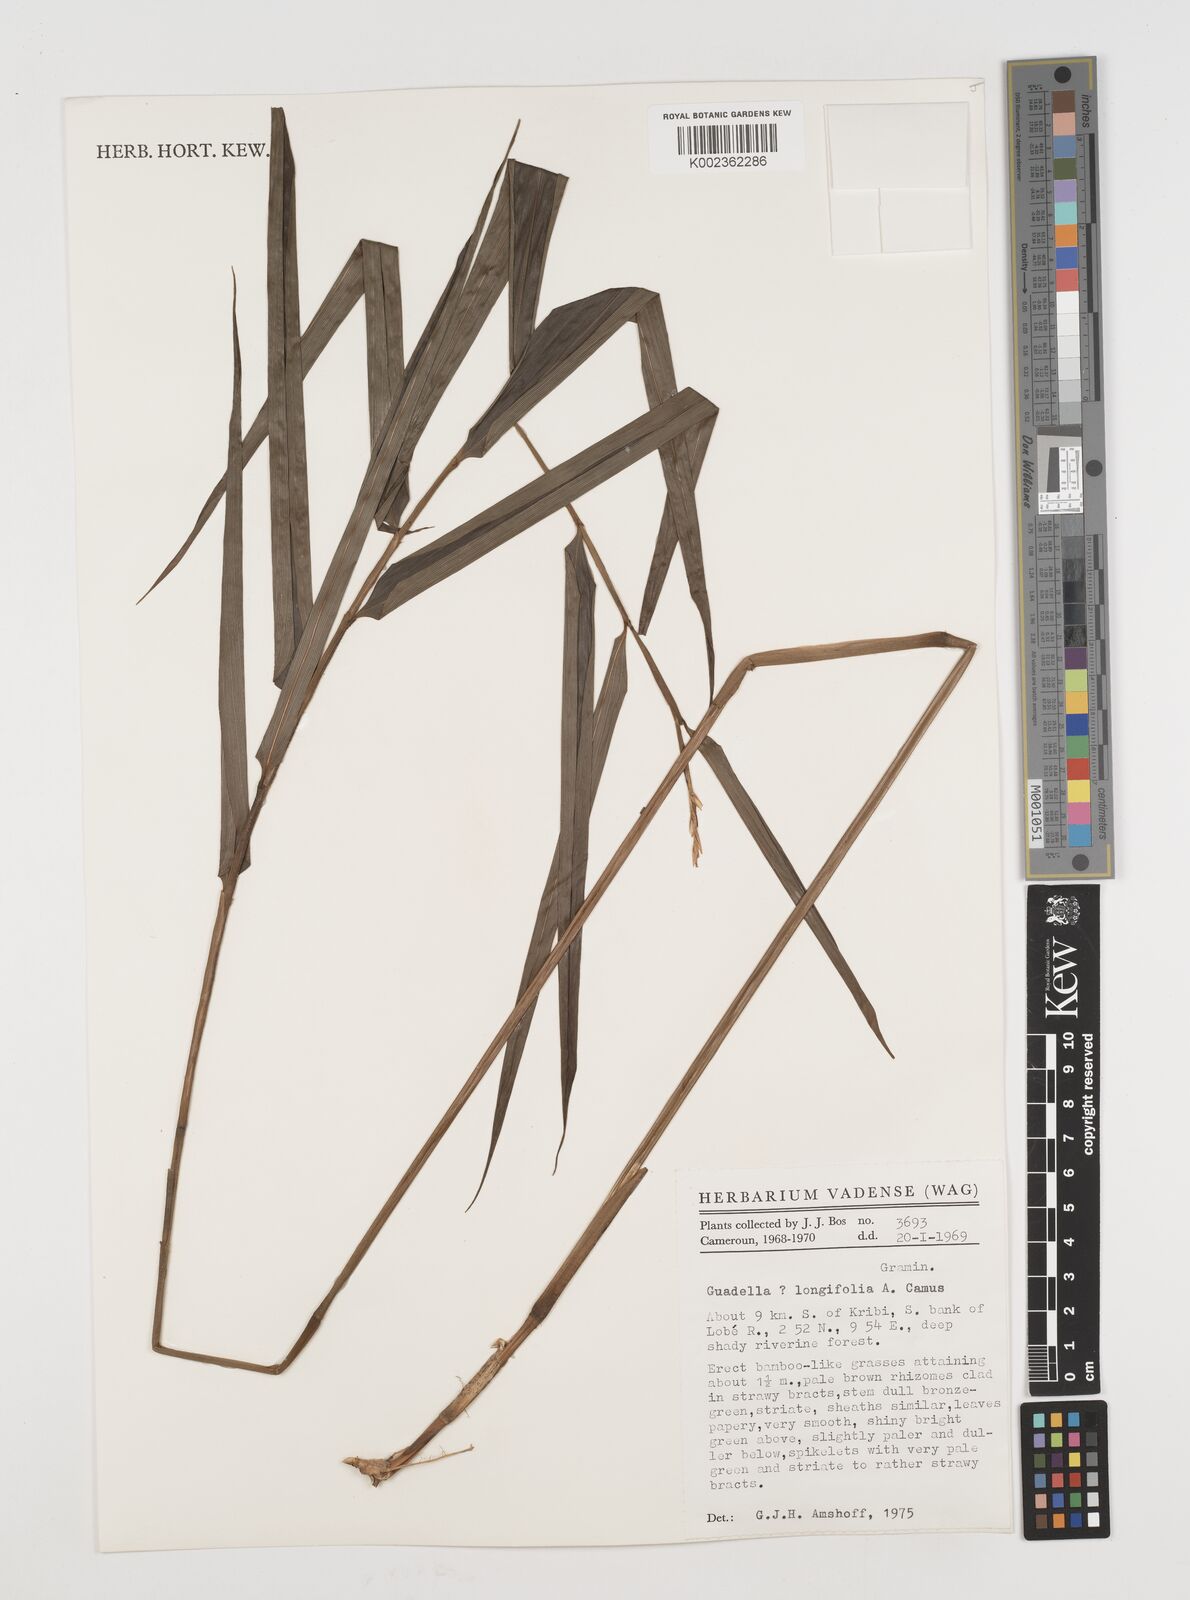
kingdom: Plantae
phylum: Tracheophyta
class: Liliopsida
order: Poales
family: Poaceae
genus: Guaduella
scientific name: Guaduella
